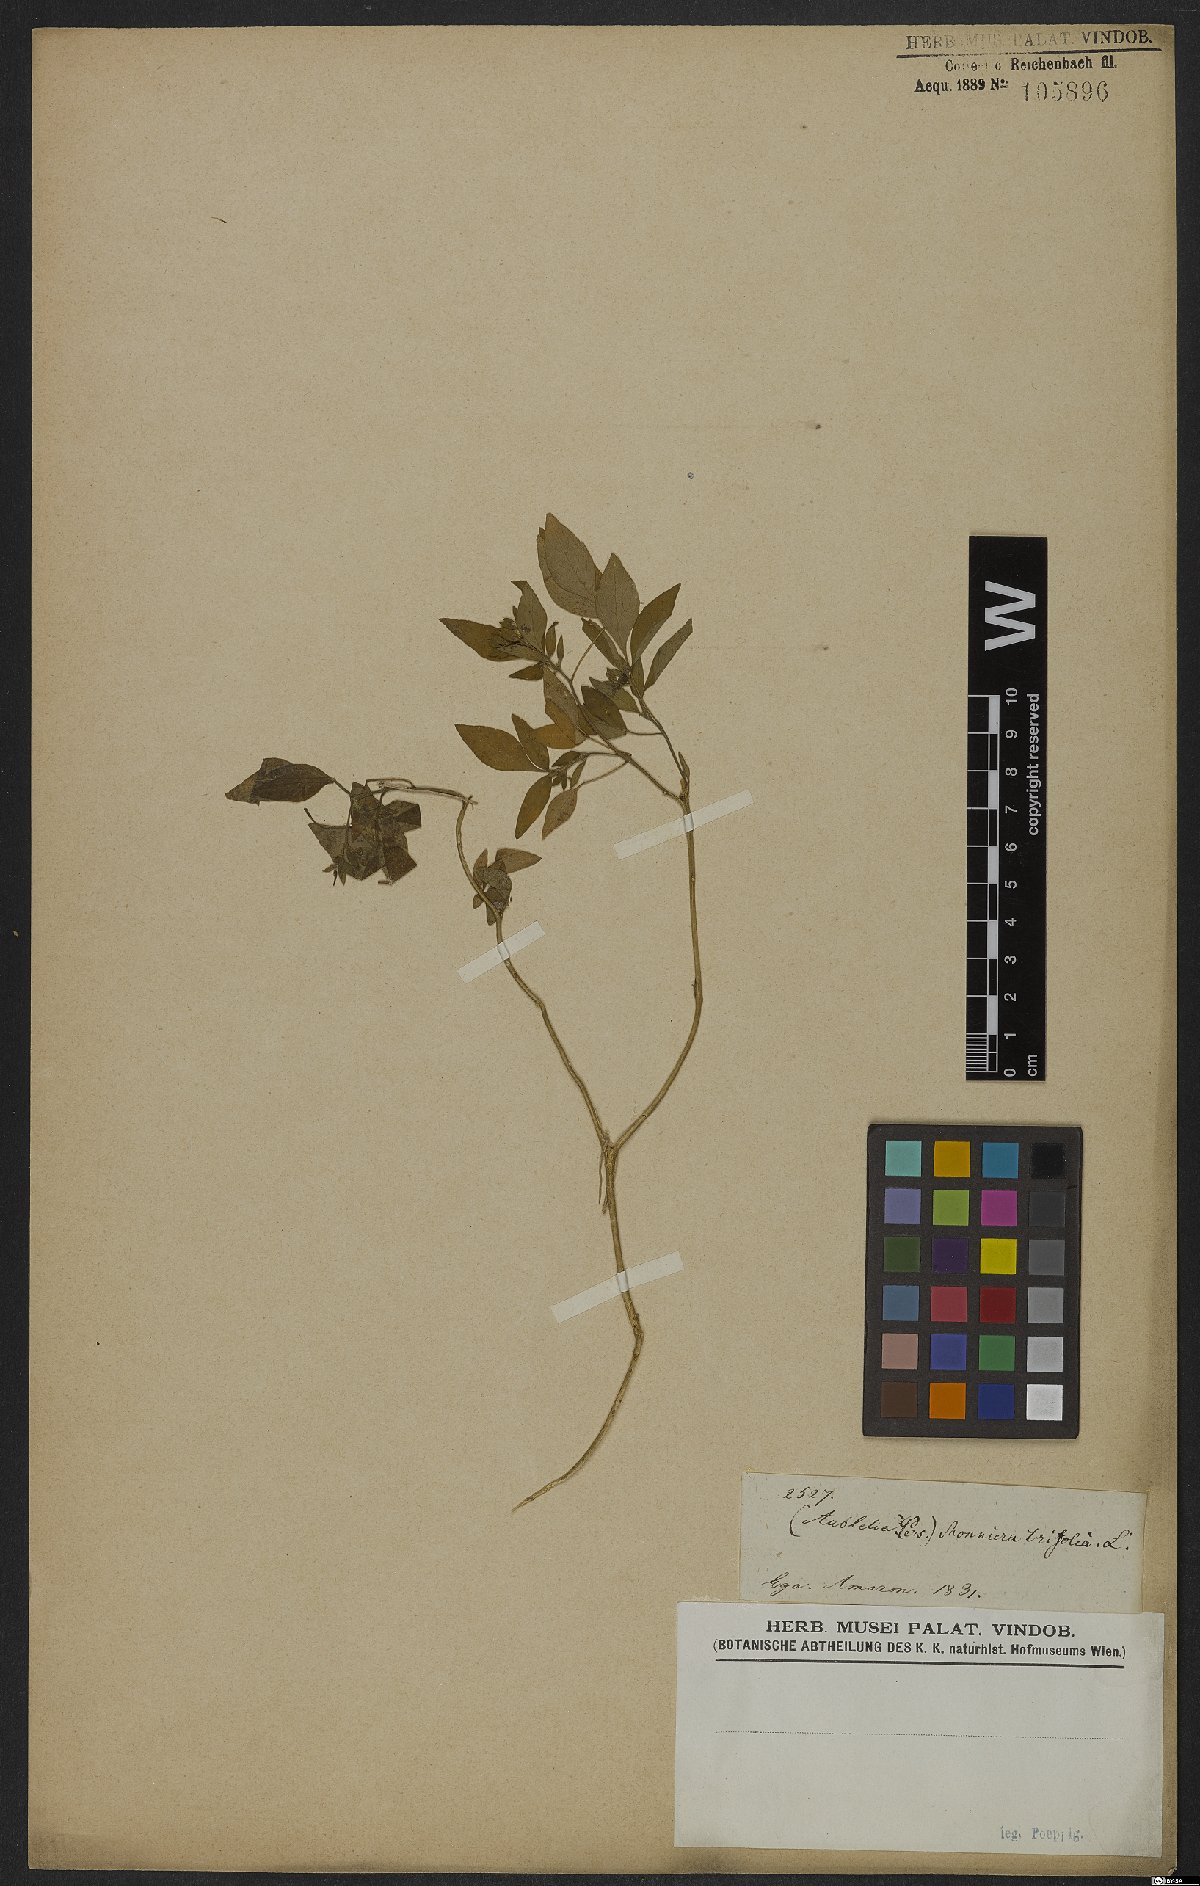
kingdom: Plantae
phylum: Tracheophyta
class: Magnoliopsida
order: Sapindales
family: Rutaceae
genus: Ertela
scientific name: Ertela trifolia
